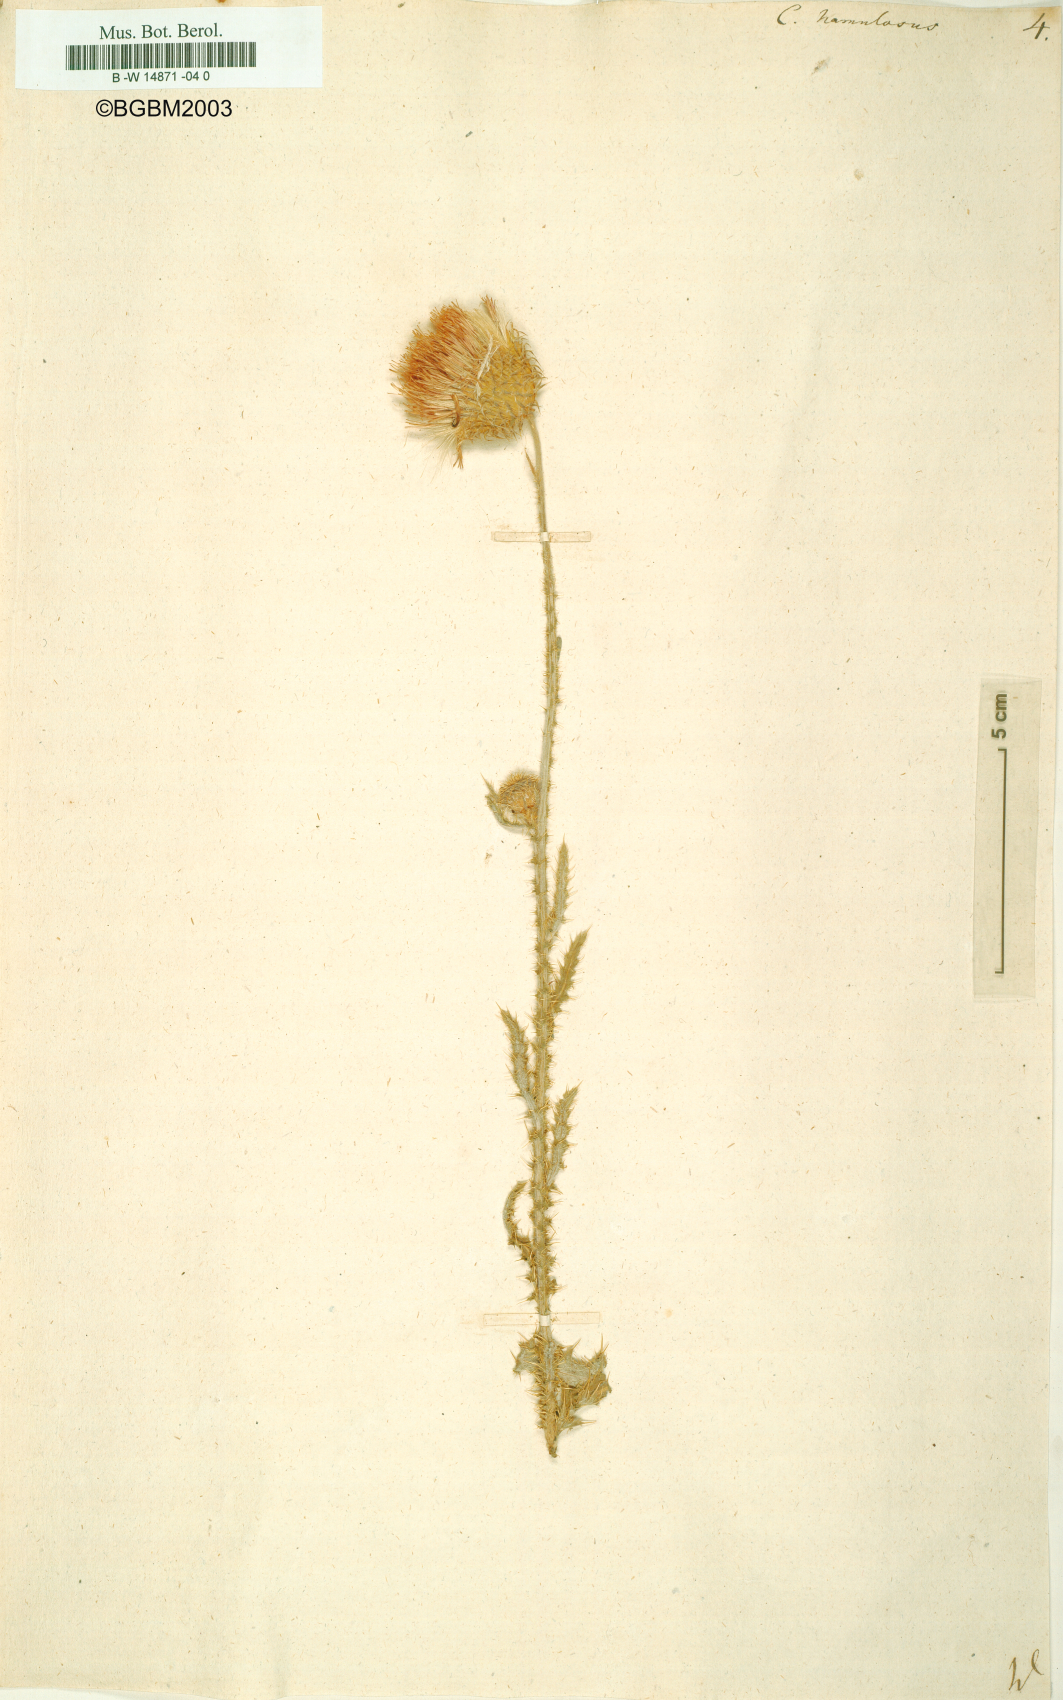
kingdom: Plantae
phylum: Tracheophyta
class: Magnoliopsida
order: Asterales
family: Asteraceae
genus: Carduus
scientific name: Carduus hamulosus
